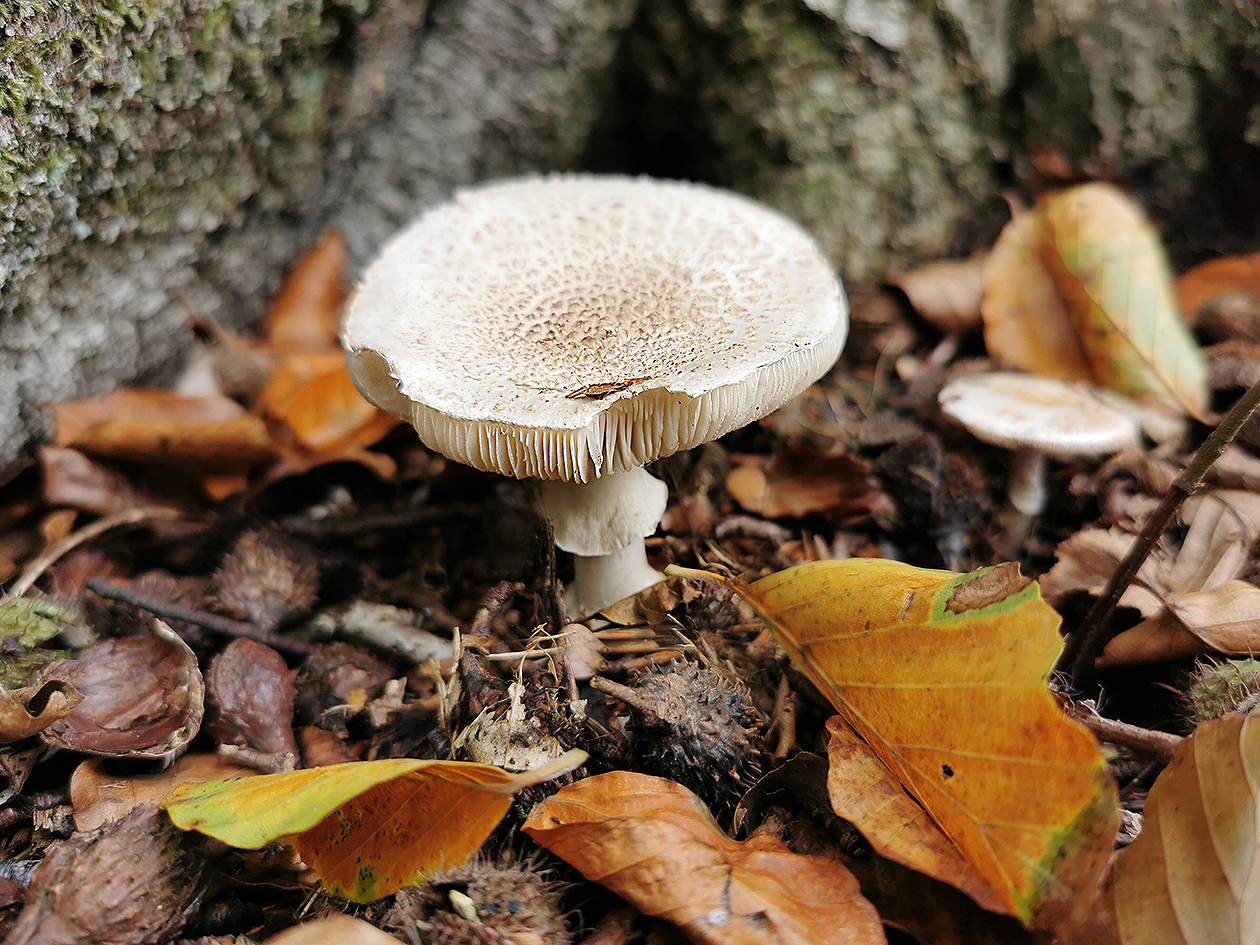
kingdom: Fungi
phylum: Basidiomycota
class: Agaricomycetes
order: Agaricales
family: Amanitaceae
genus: Amanita
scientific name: Amanita
